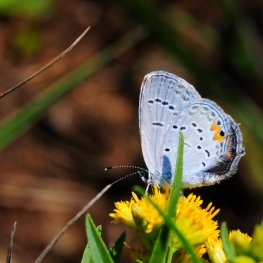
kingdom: Animalia
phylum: Arthropoda
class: Insecta
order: Lepidoptera
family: Lycaenidae
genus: Elkalyce
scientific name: Elkalyce comyntas
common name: Eastern Tailed-Blue
